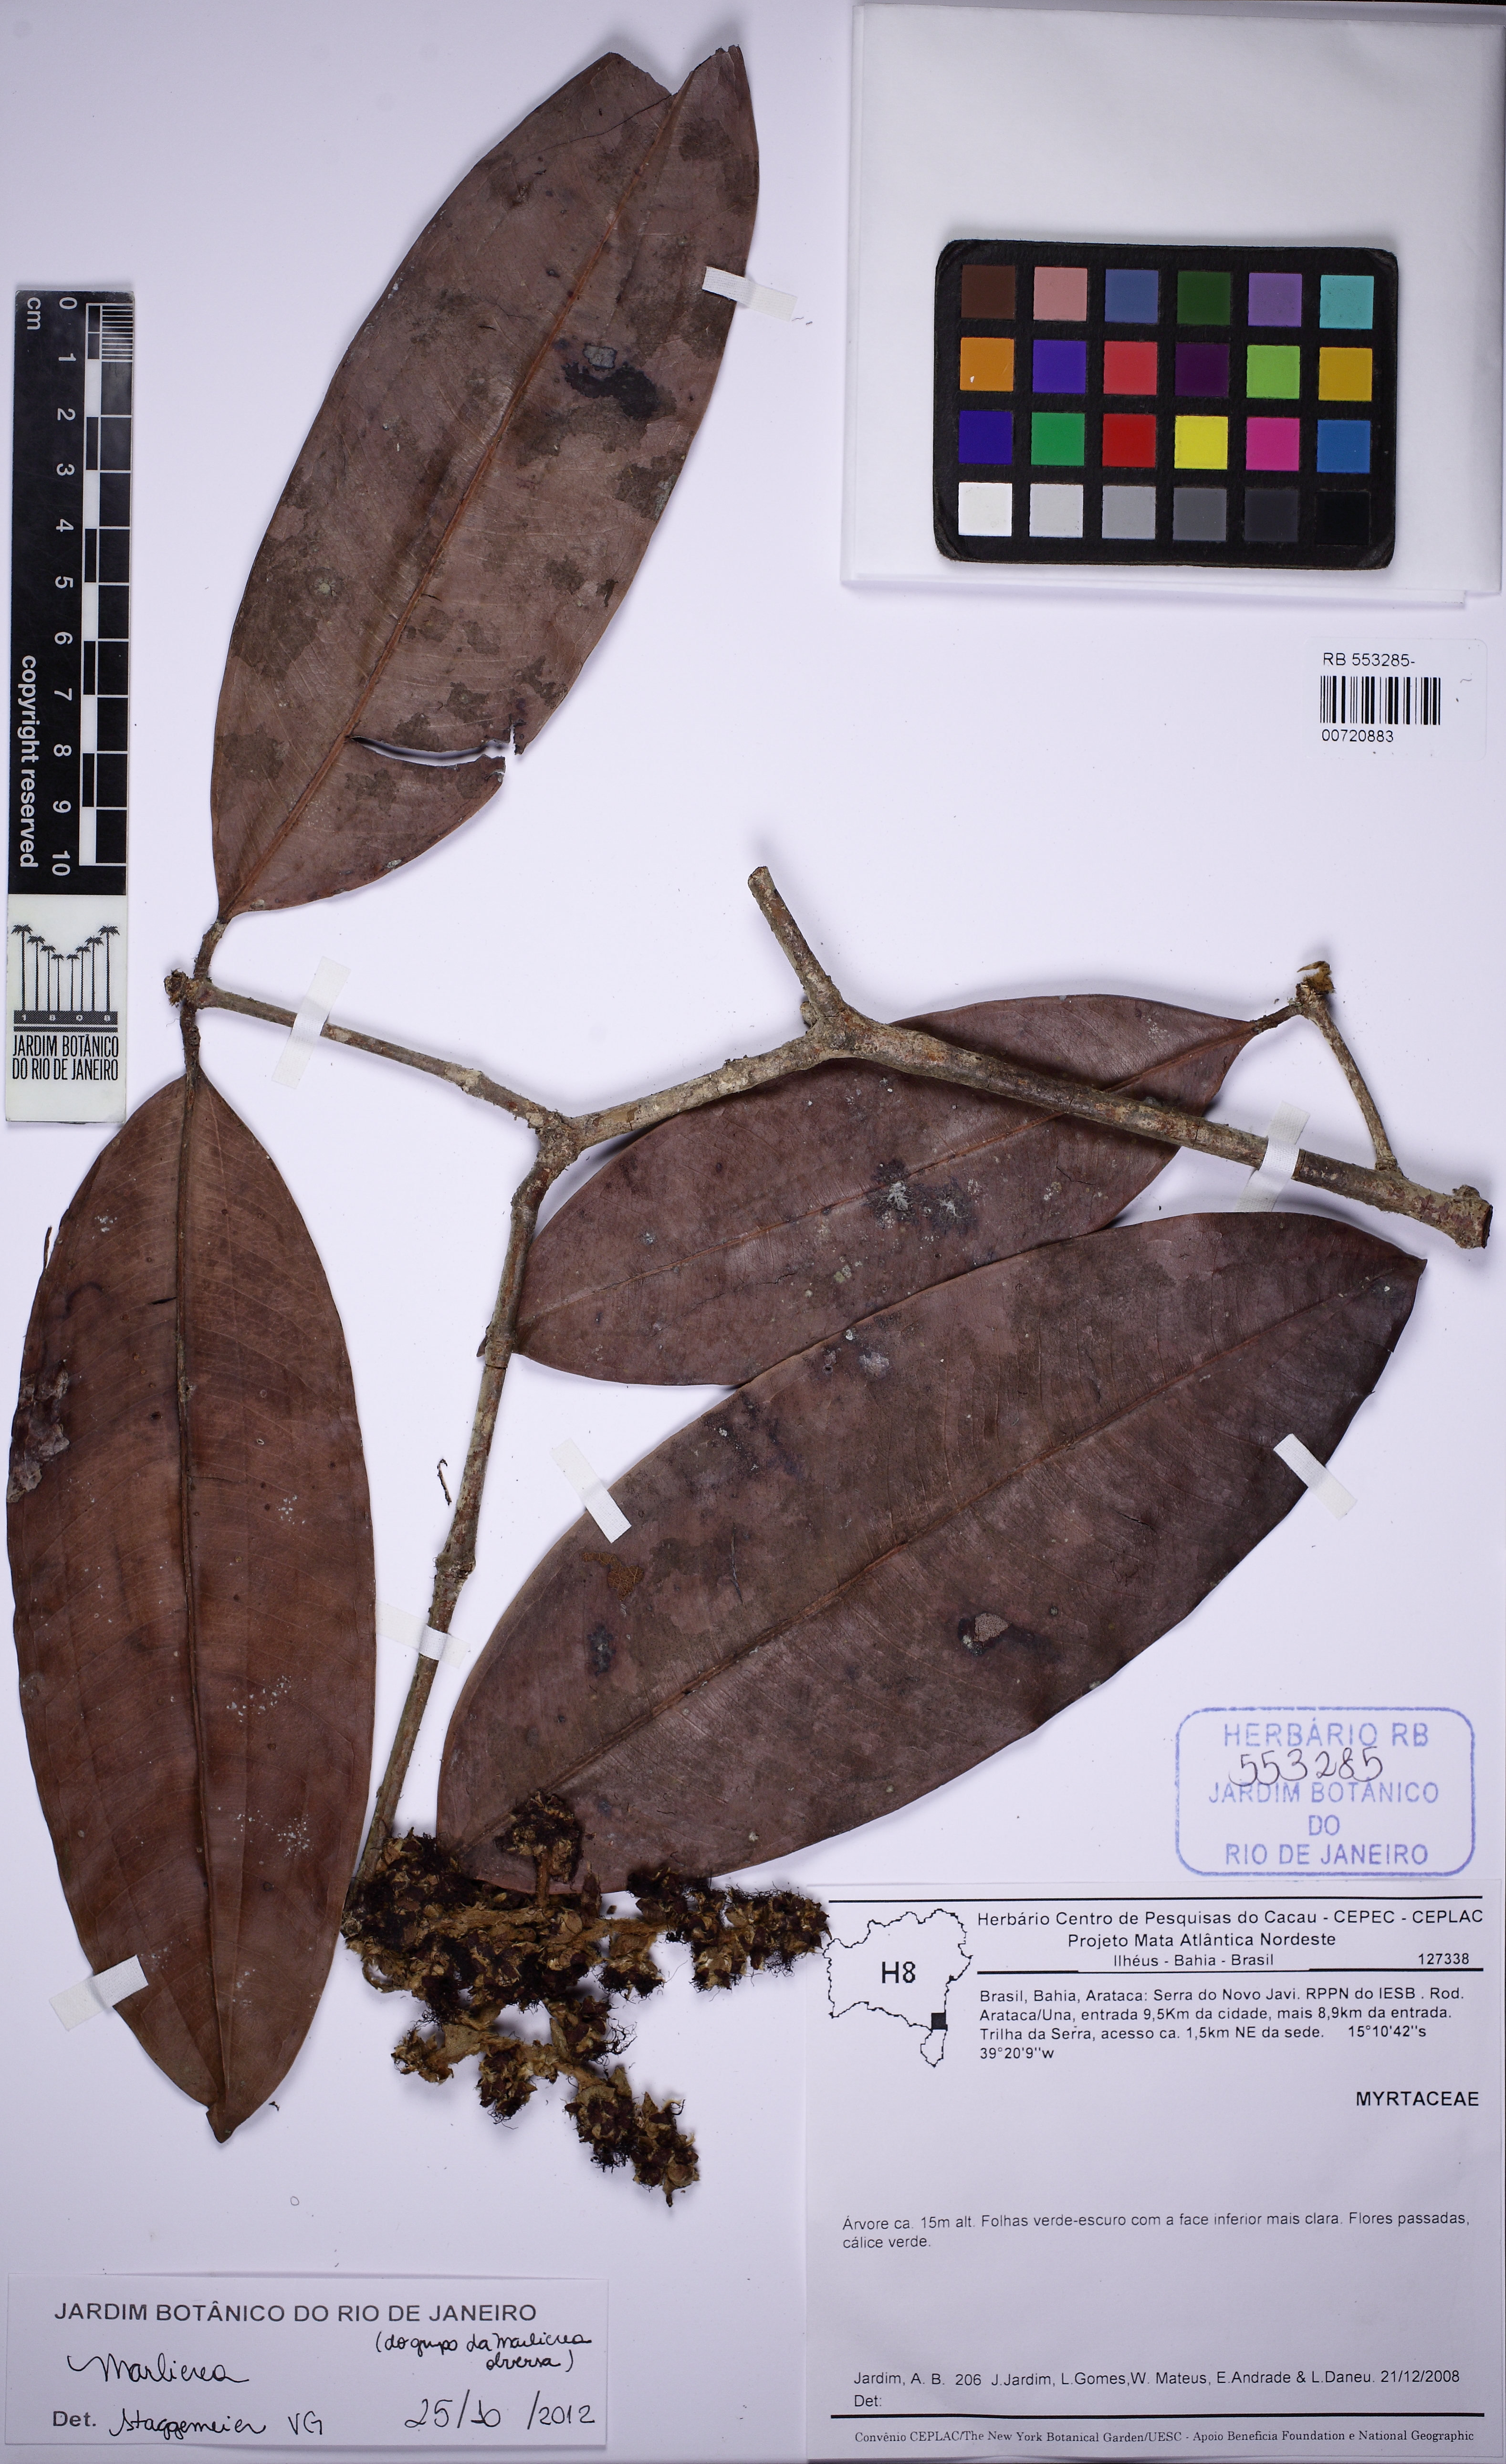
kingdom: Plantae
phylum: Tracheophyta
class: Magnoliopsida
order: Myrtales
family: Myrtaceae
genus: Myrcia
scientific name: Myrcia sucrei
